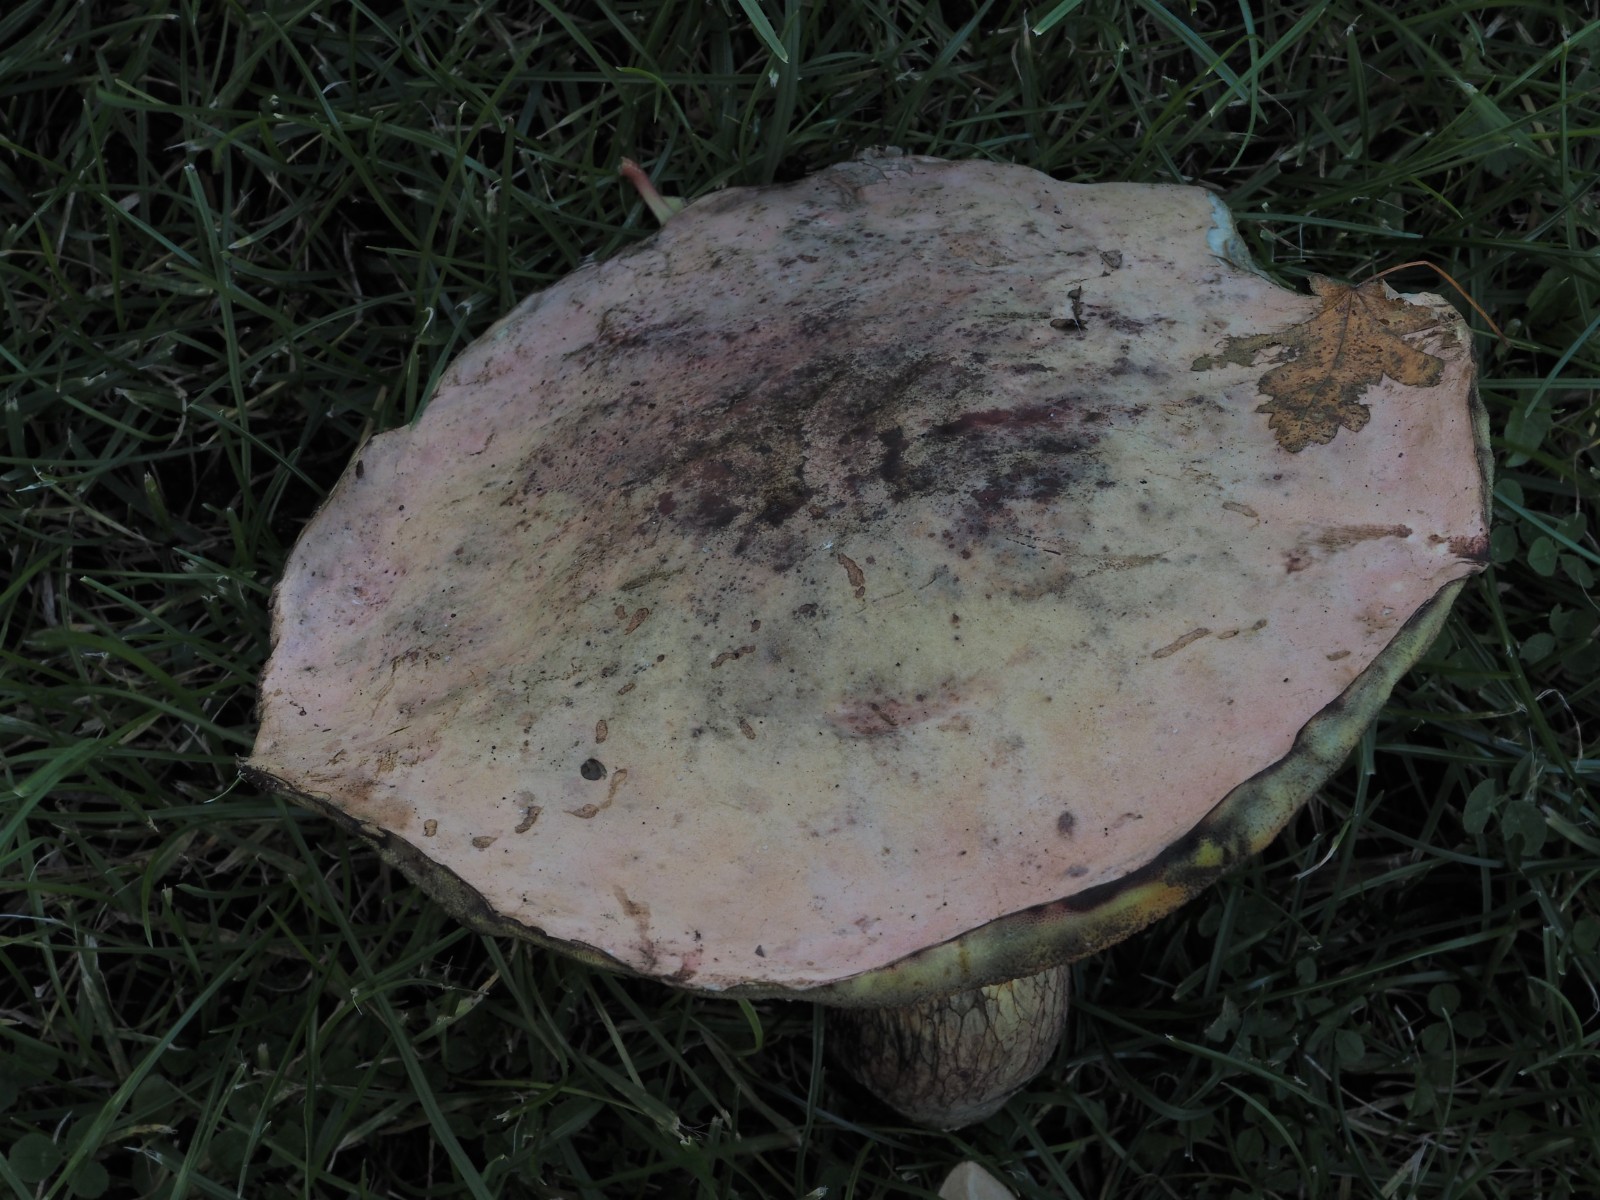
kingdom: Fungi
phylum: Basidiomycota
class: Agaricomycetes
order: Boletales
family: Boletaceae
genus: Suillellus
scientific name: Suillellus luridus
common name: netstokket indigorørhat
